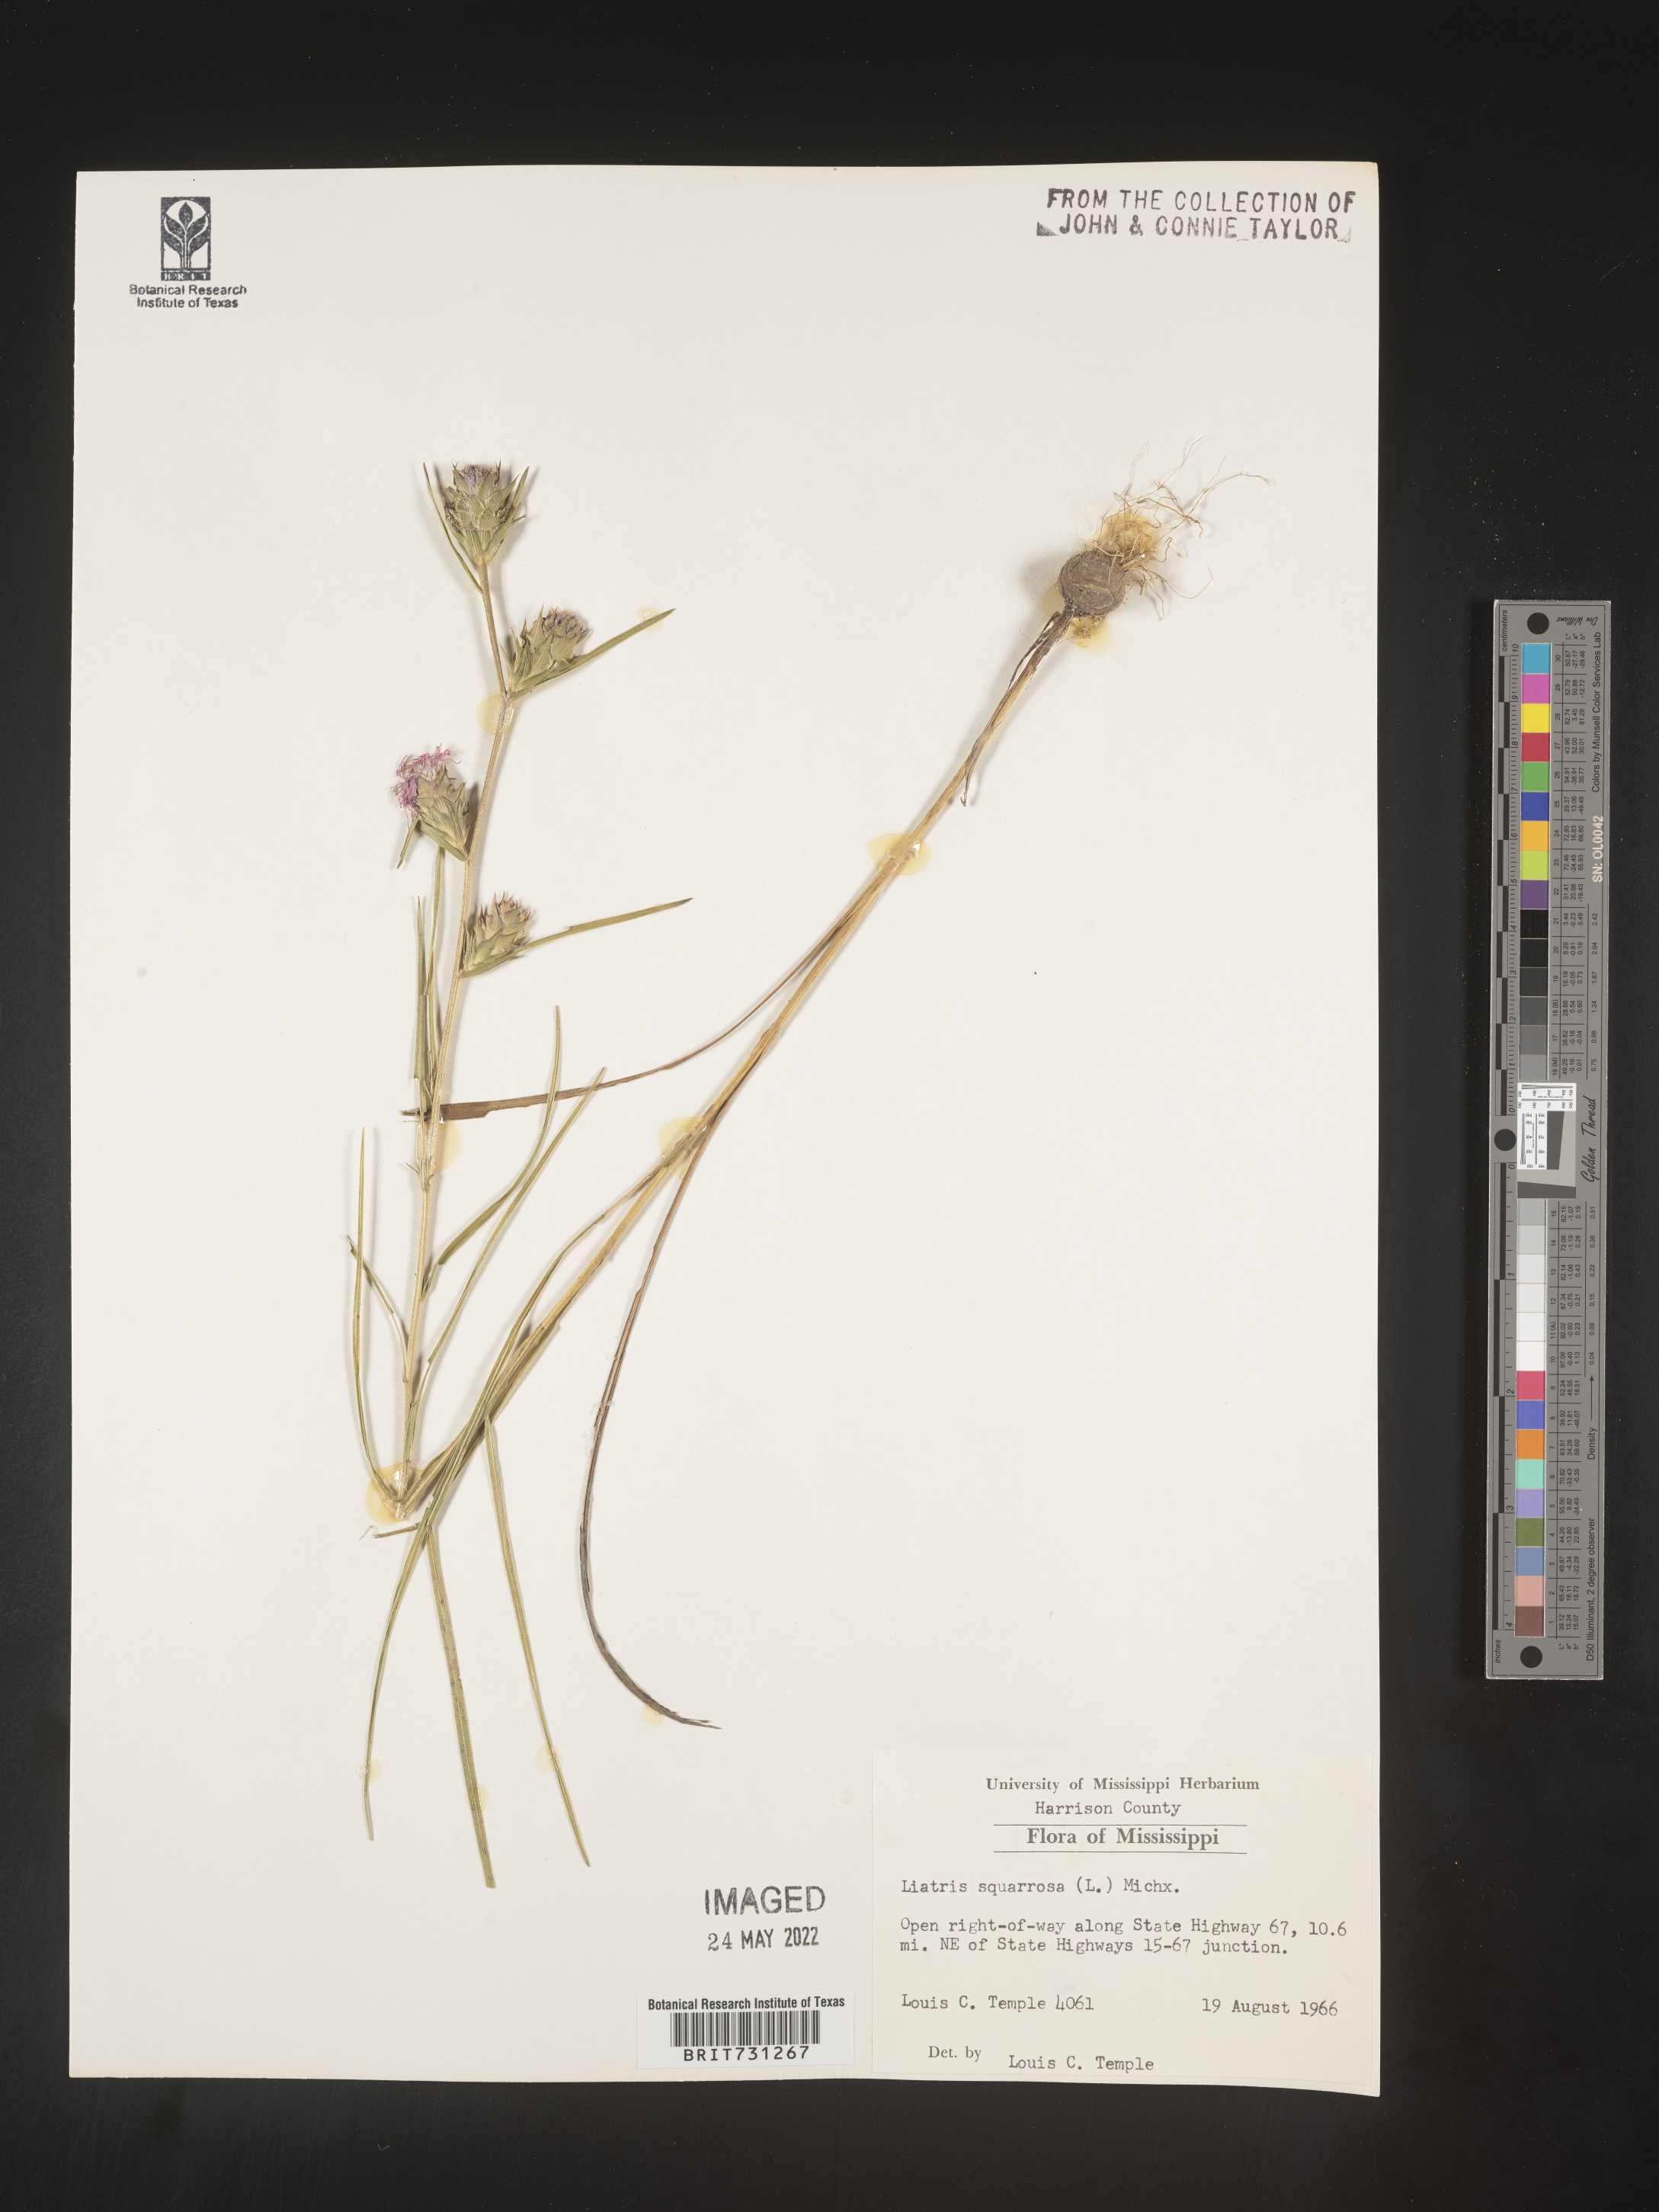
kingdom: Plantae
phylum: Tracheophyta
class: Magnoliopsida
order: Asterales
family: Asteraceae
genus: Liatris
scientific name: Liatris squarrosa
